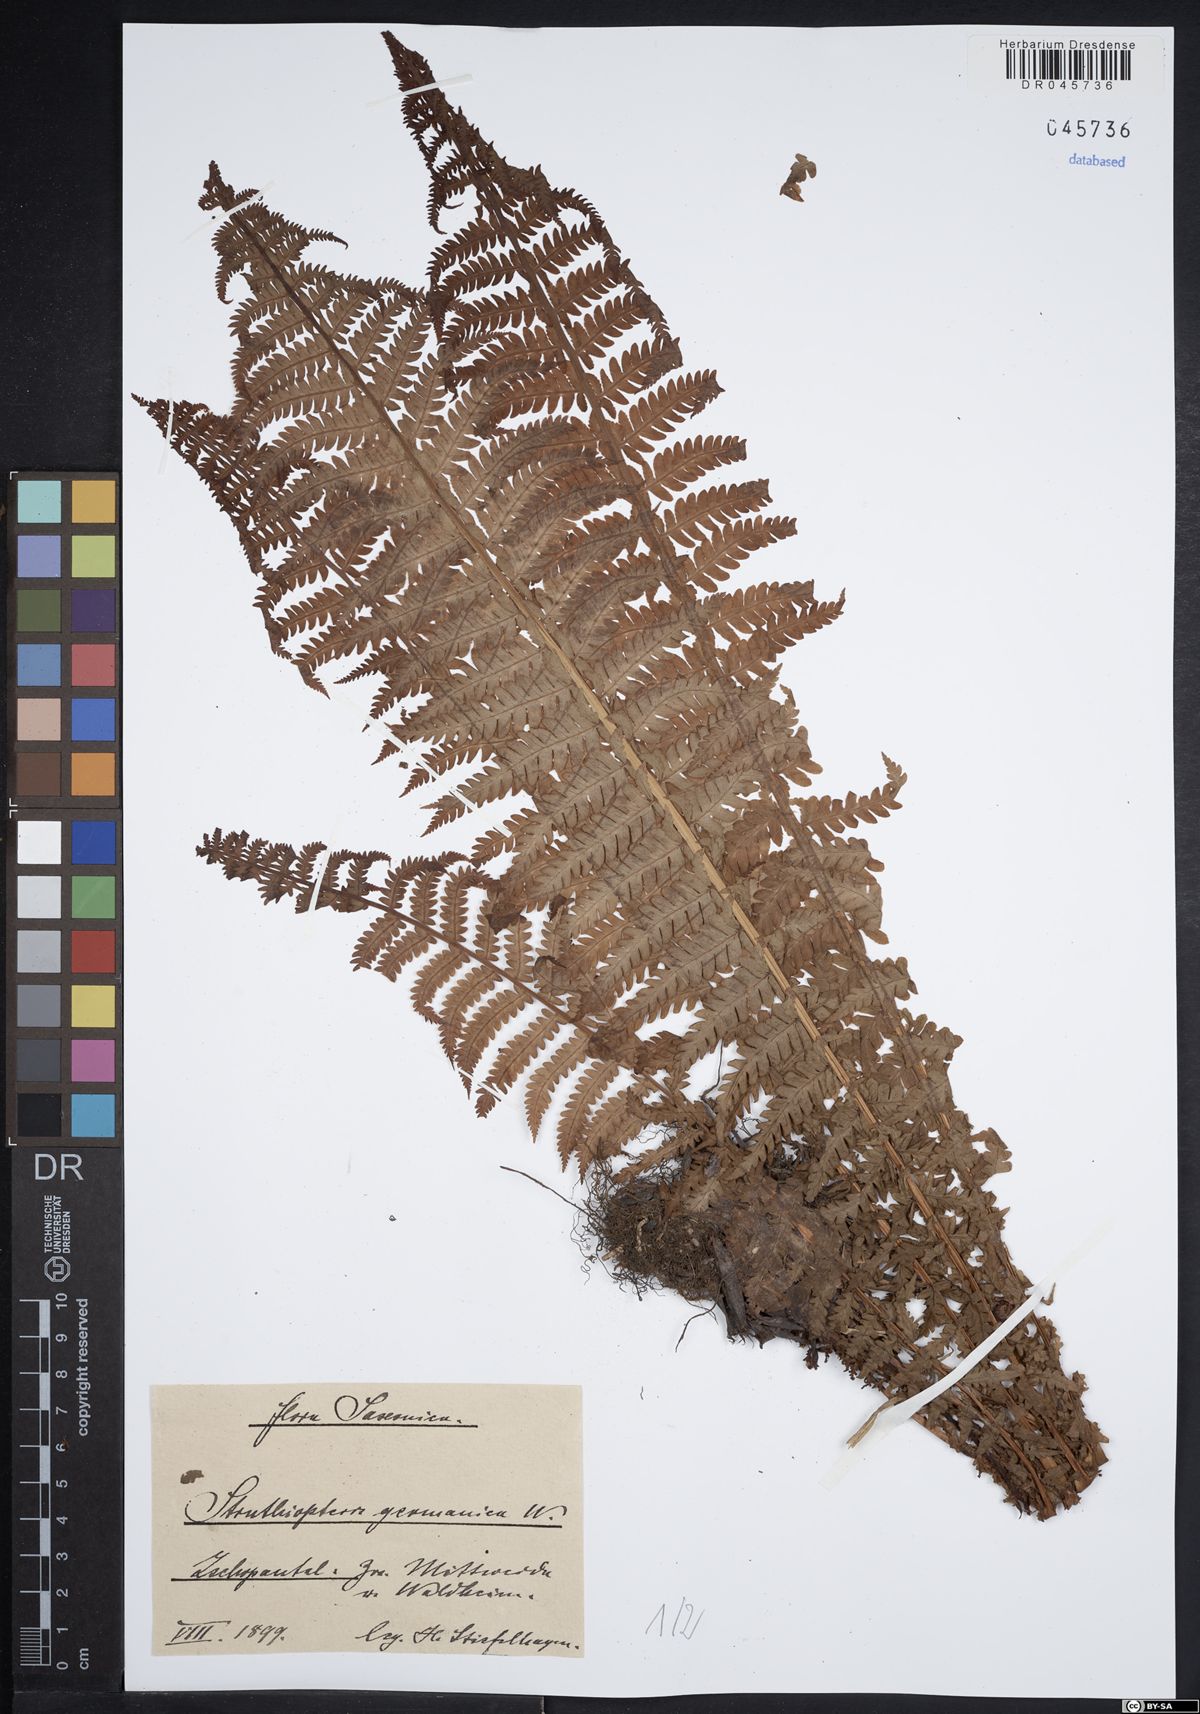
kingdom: Plantae
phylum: Tracheophyta
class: Polypodiopsida
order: Polypodiales
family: Onocleaceae
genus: Matteuccia
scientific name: Matteuccia struthiopteris
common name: Ostrich fern
